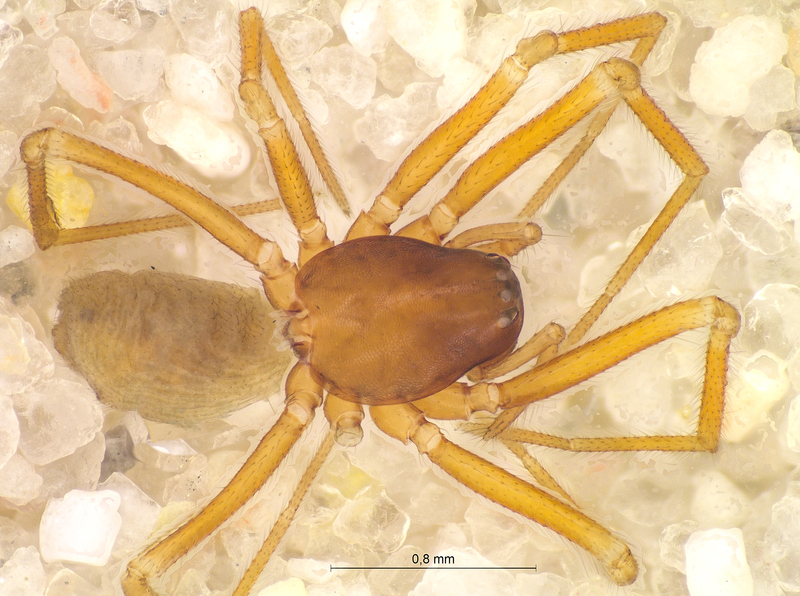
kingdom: Animalia
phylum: Arthropoda
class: Arachnida
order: Araneae
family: Linyphiidae
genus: Micrargus
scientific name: Micrargus apertus
